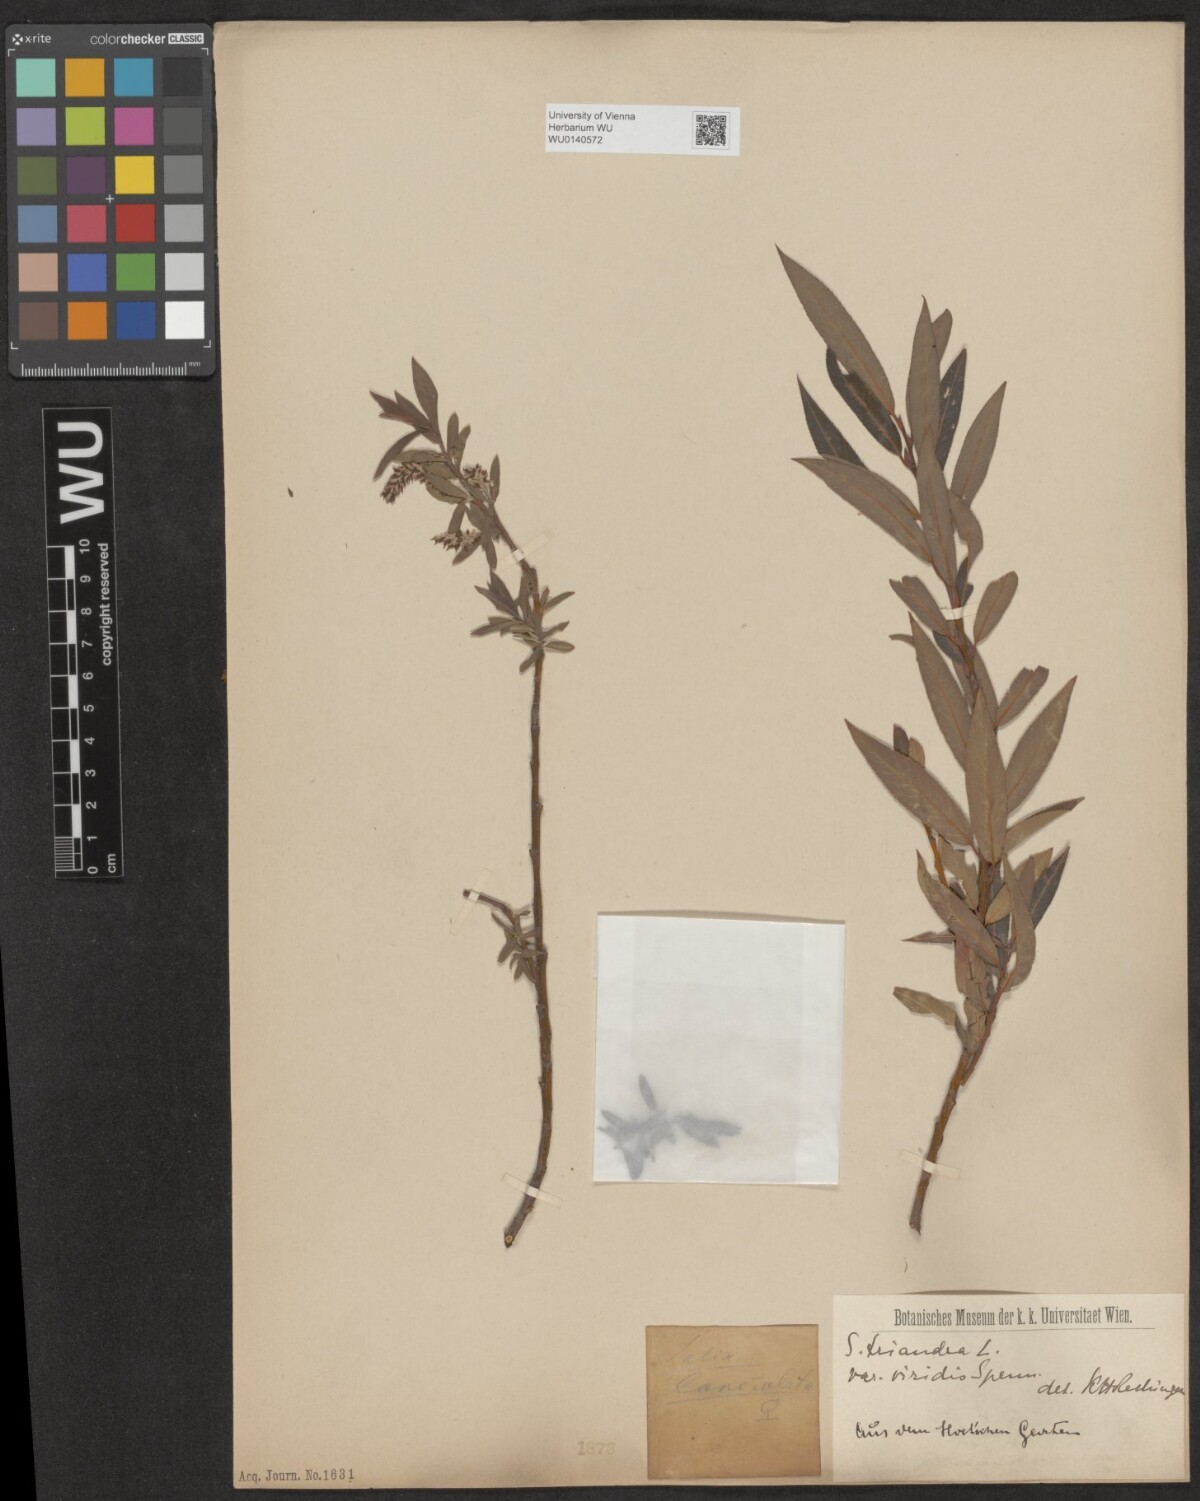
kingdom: Plantae
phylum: Tracheophyta
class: Magnoliopsida
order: Malpighiales
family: Salicaceae
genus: Salix
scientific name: Salix triandra
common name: Almond willow
